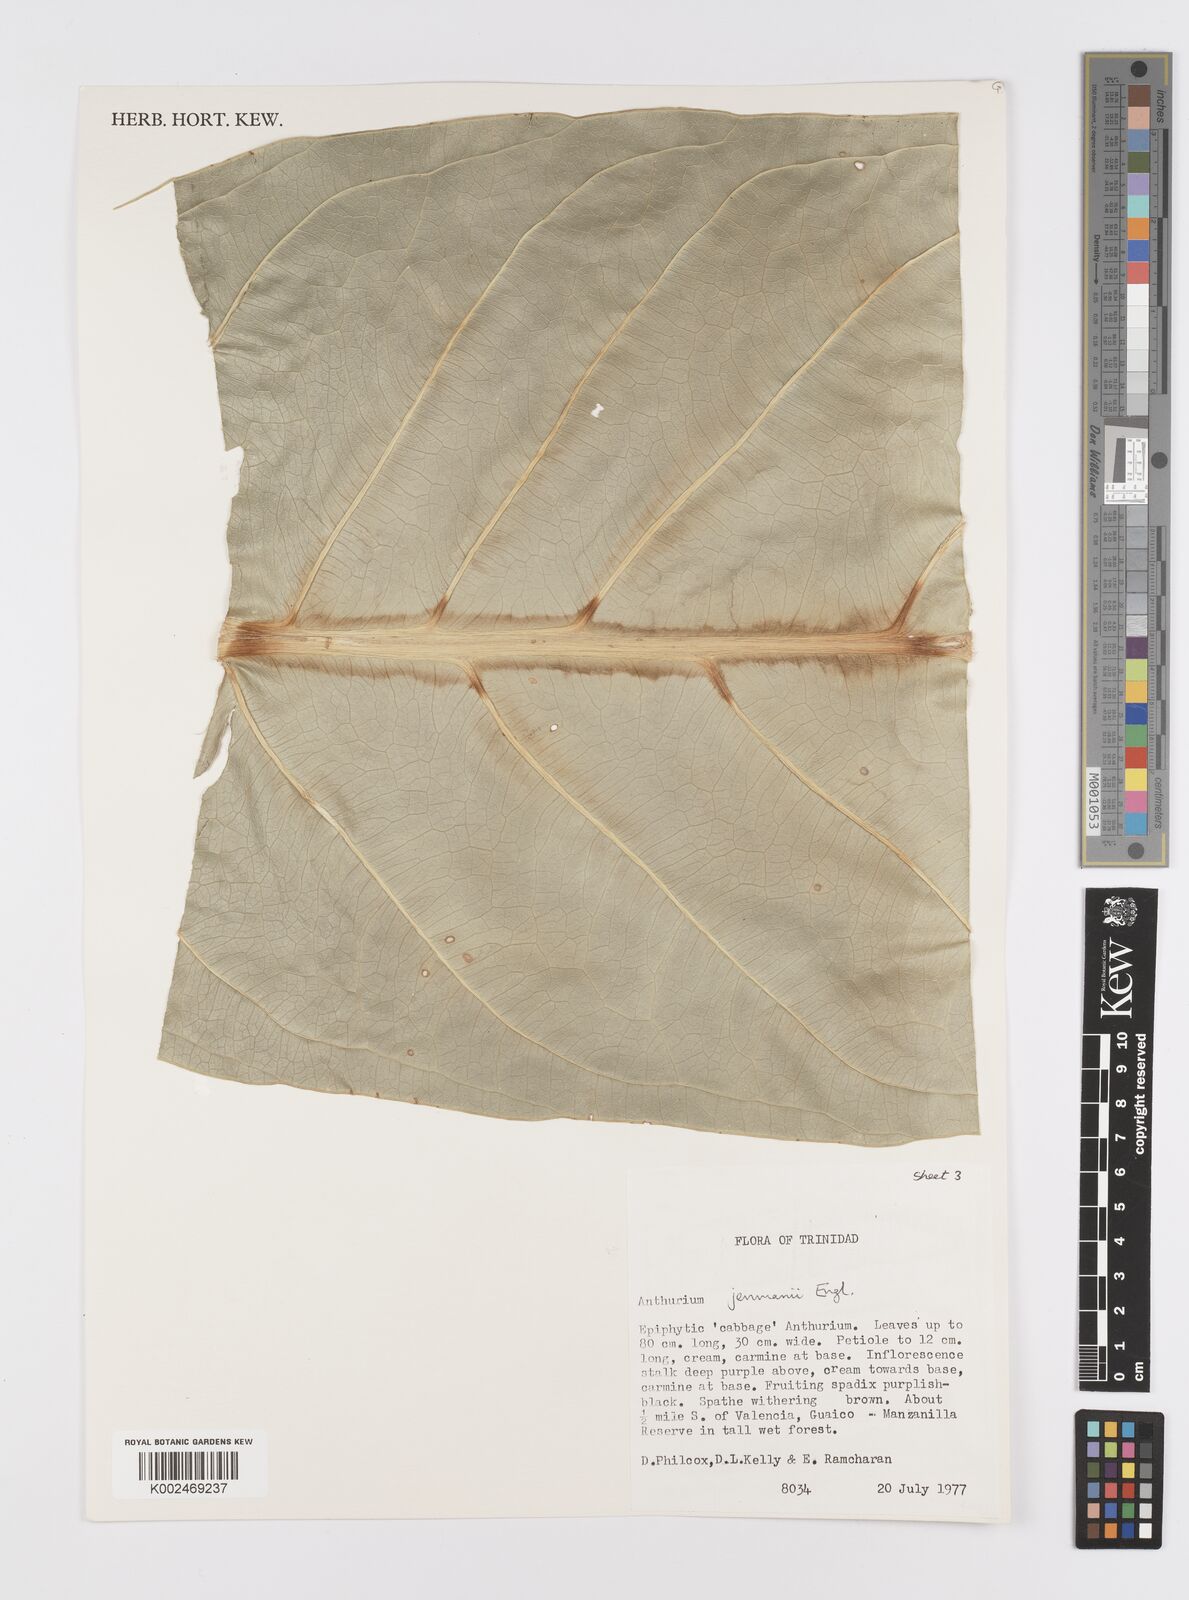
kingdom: Plantae
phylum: Tracheophyta
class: Liliopsida
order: Alismatales
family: Araceae
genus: Anthurium
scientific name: Anthurium jenmanii
